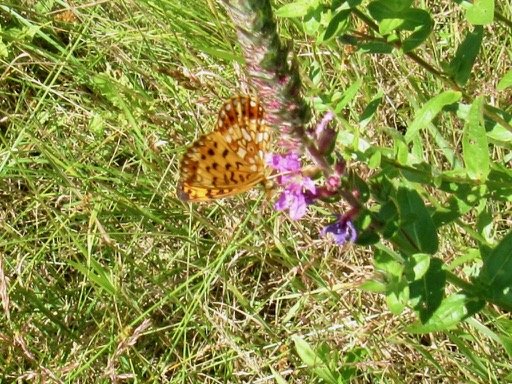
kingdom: Animalia
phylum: Arthropoda
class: Insecta
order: Lepidoptera
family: Nymphalidae
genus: Boloria
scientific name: Boloria selene
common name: Silver-bordered Fritillary
